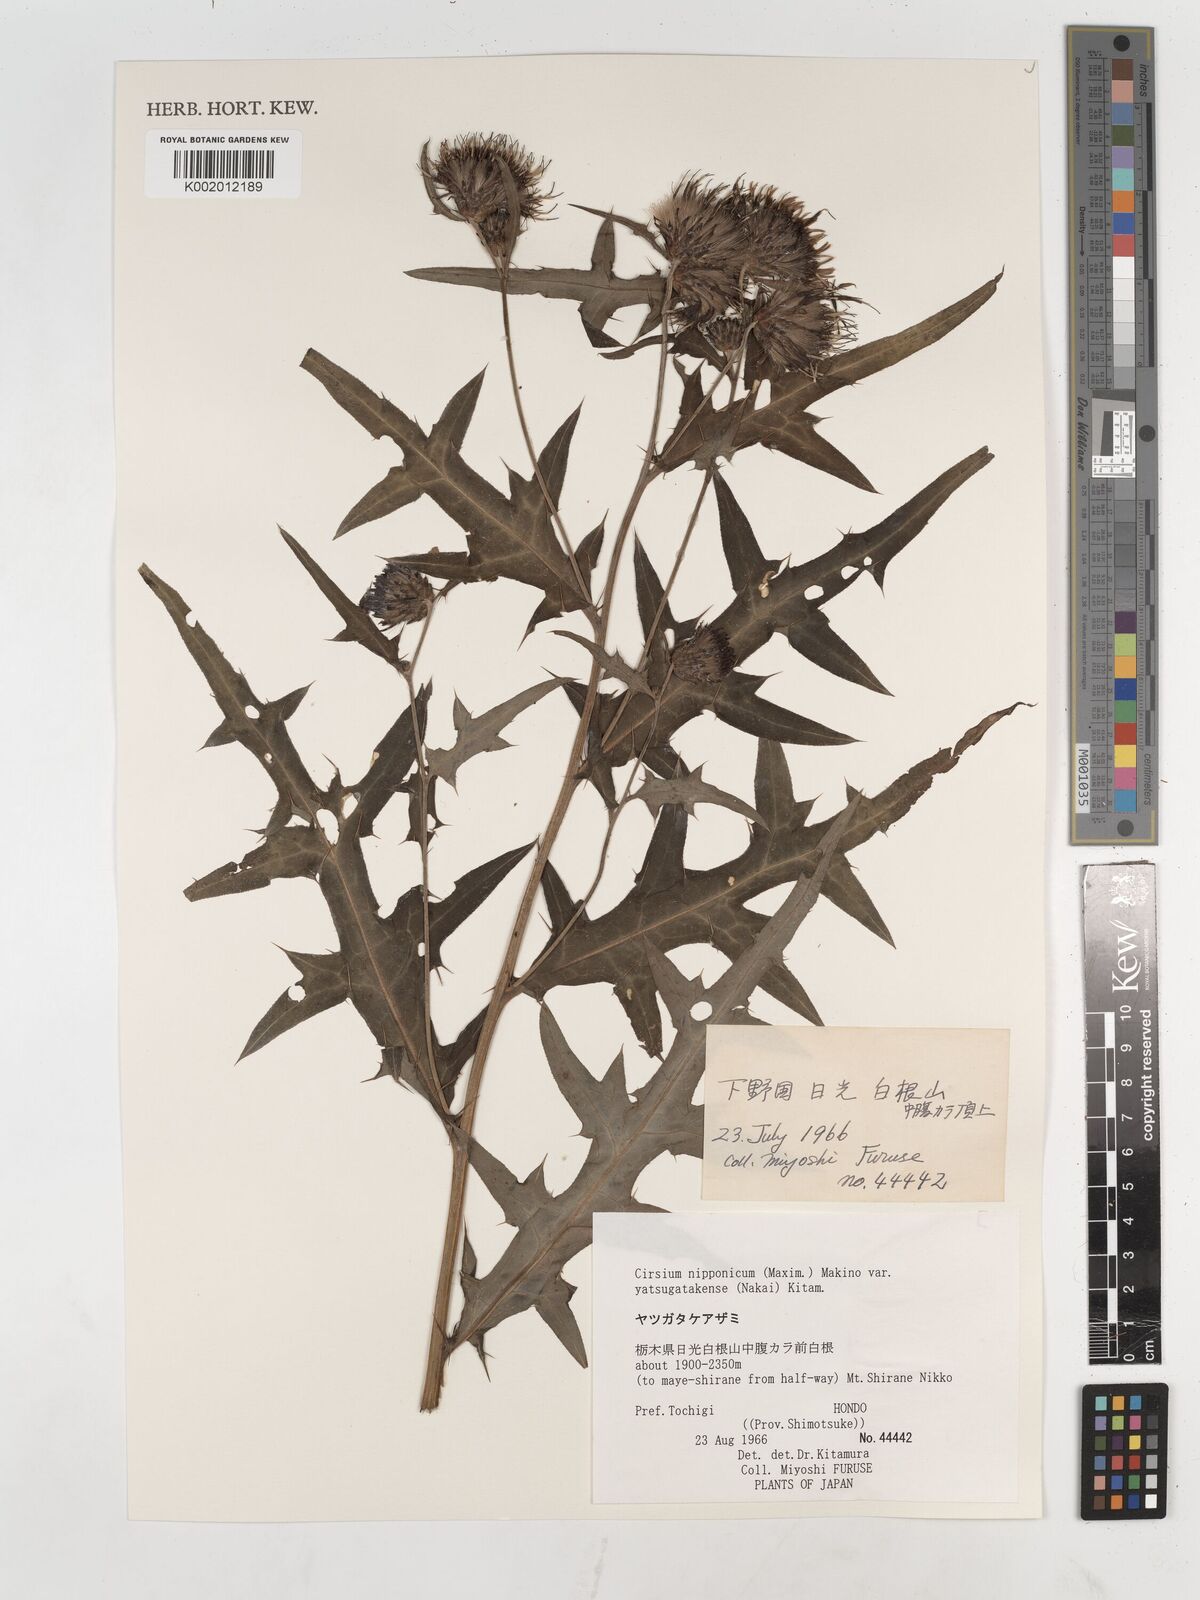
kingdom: Plantae
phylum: Tracheophyta
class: Magnoliopsida
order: Asterales
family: Asteraceae
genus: Cirsium
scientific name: Cirsium nipponicum
